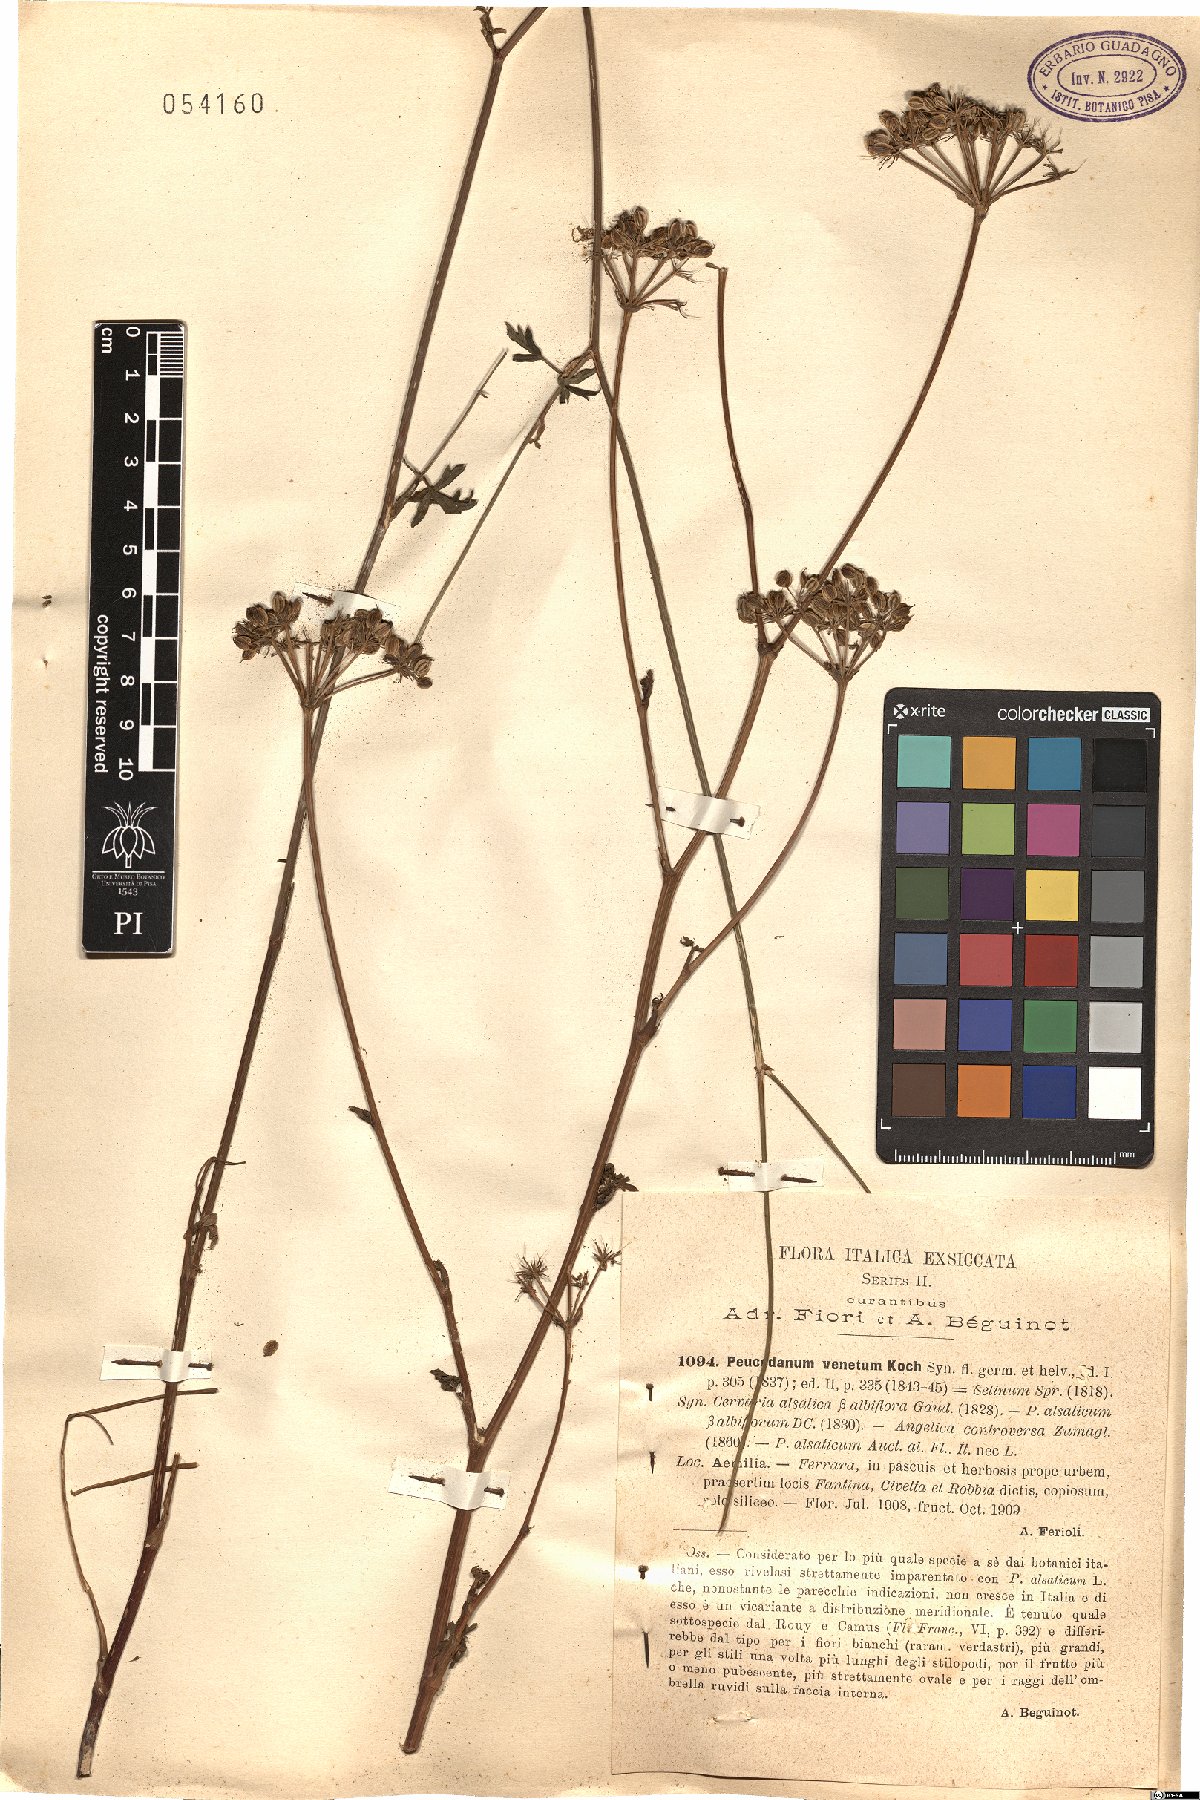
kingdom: Plantae
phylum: Tracheophyta
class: Magnoliopsida
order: Apiales
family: Apiaceae
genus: Xanthoselinum
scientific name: Xanthoselinum alsaticum
